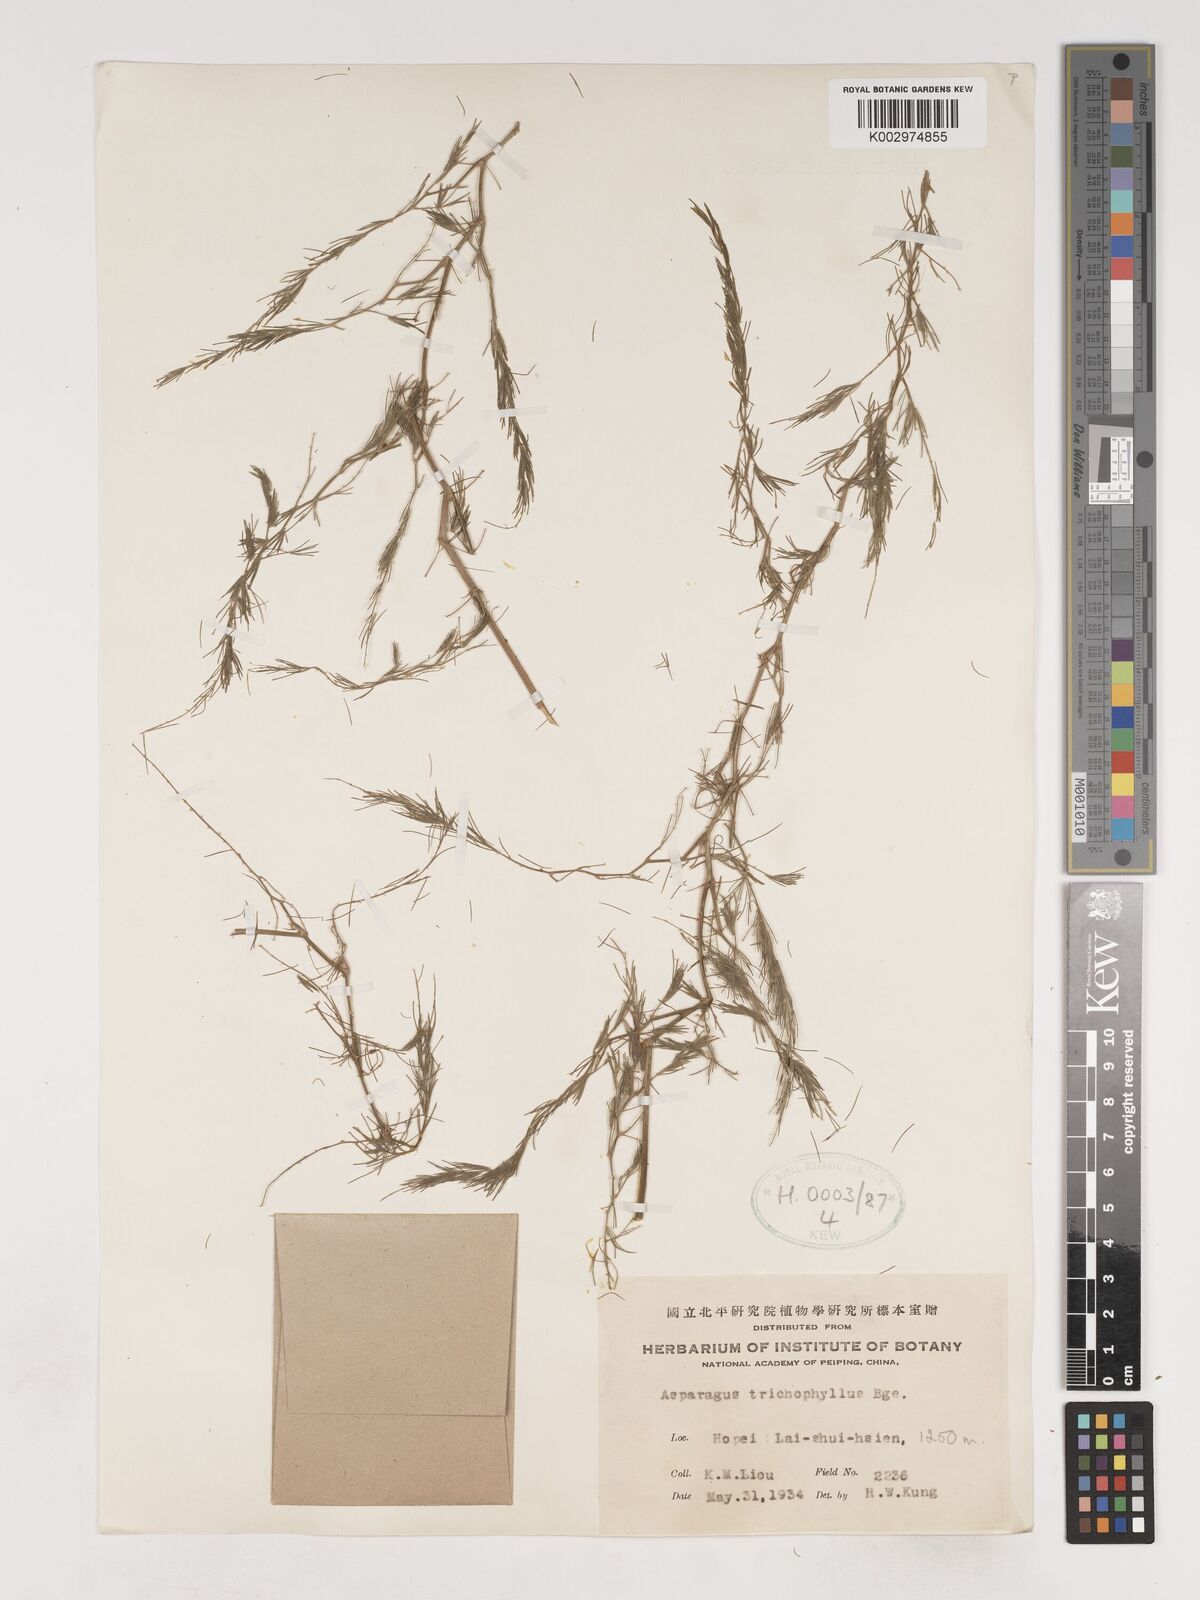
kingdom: Plantae
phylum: Tracheophyta
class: Liliopsida
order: Asparagales
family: Asparagaceae
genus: Asparagus
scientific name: Asparagus trichophyllus
